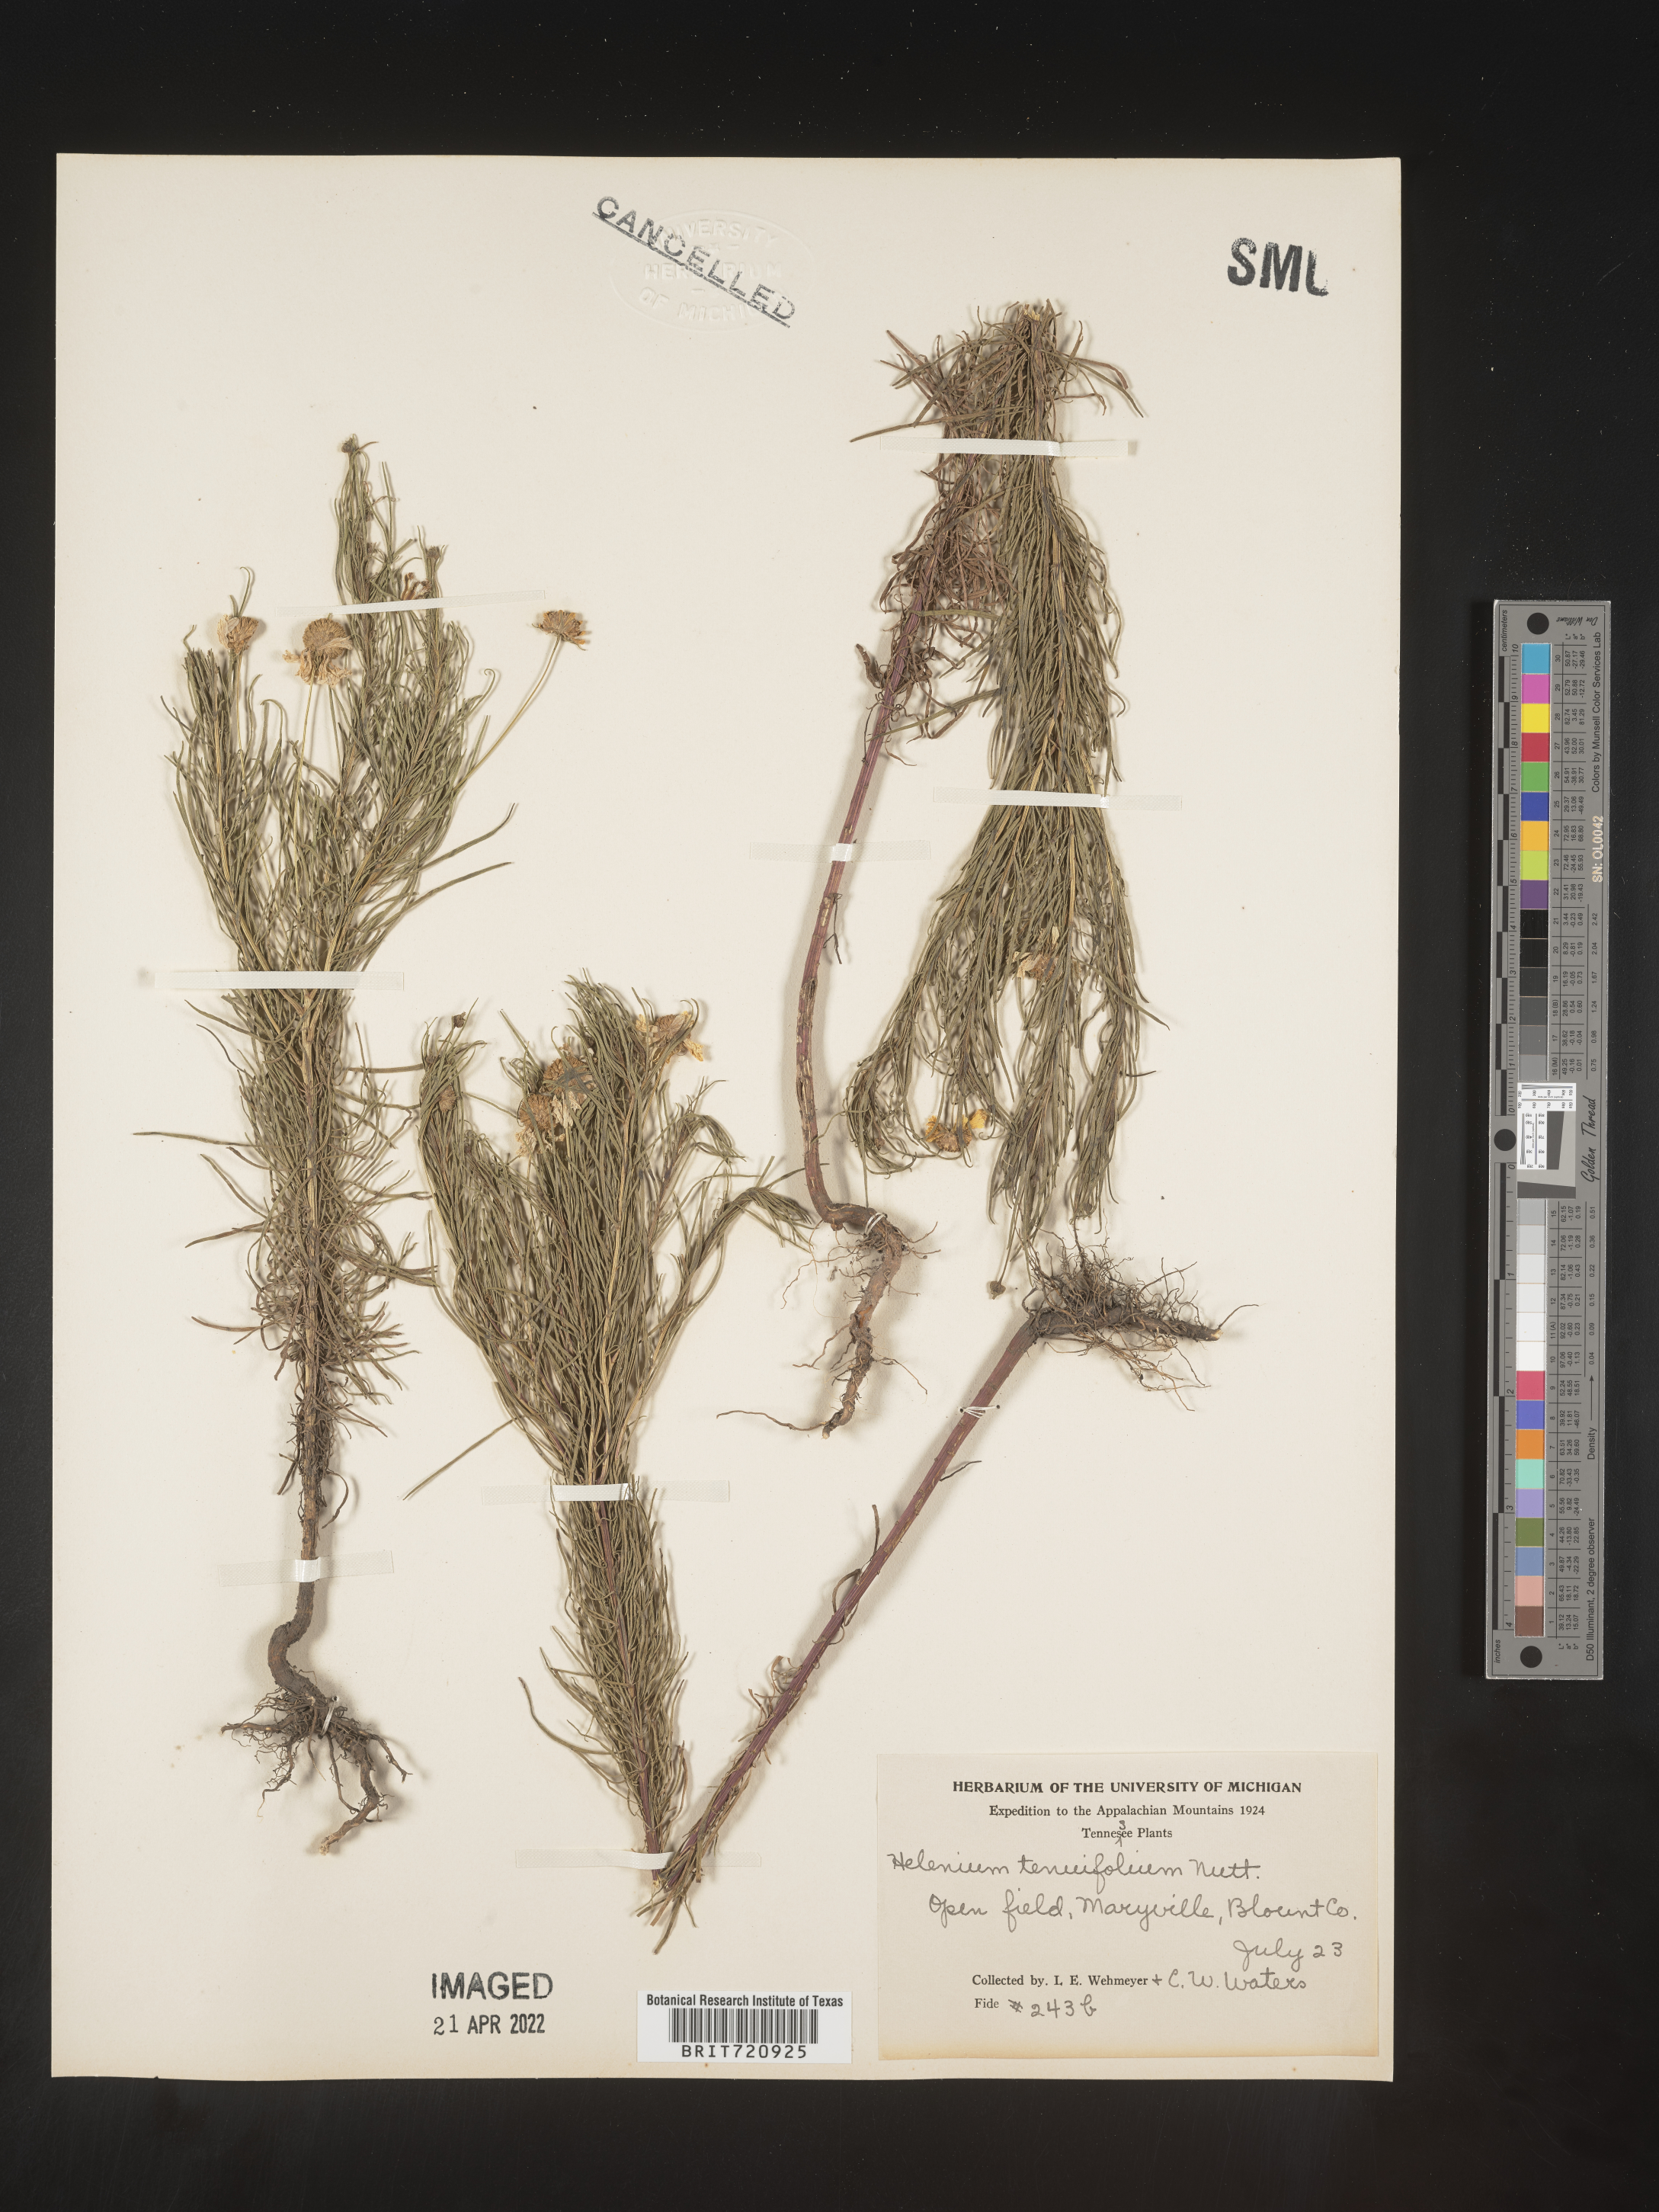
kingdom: Plantae
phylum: Tracheophyta
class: Magnoliopsida
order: Asterales
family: Asteraceae
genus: Helenium
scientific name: Helenium amarum
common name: Bitter sneezeweed
